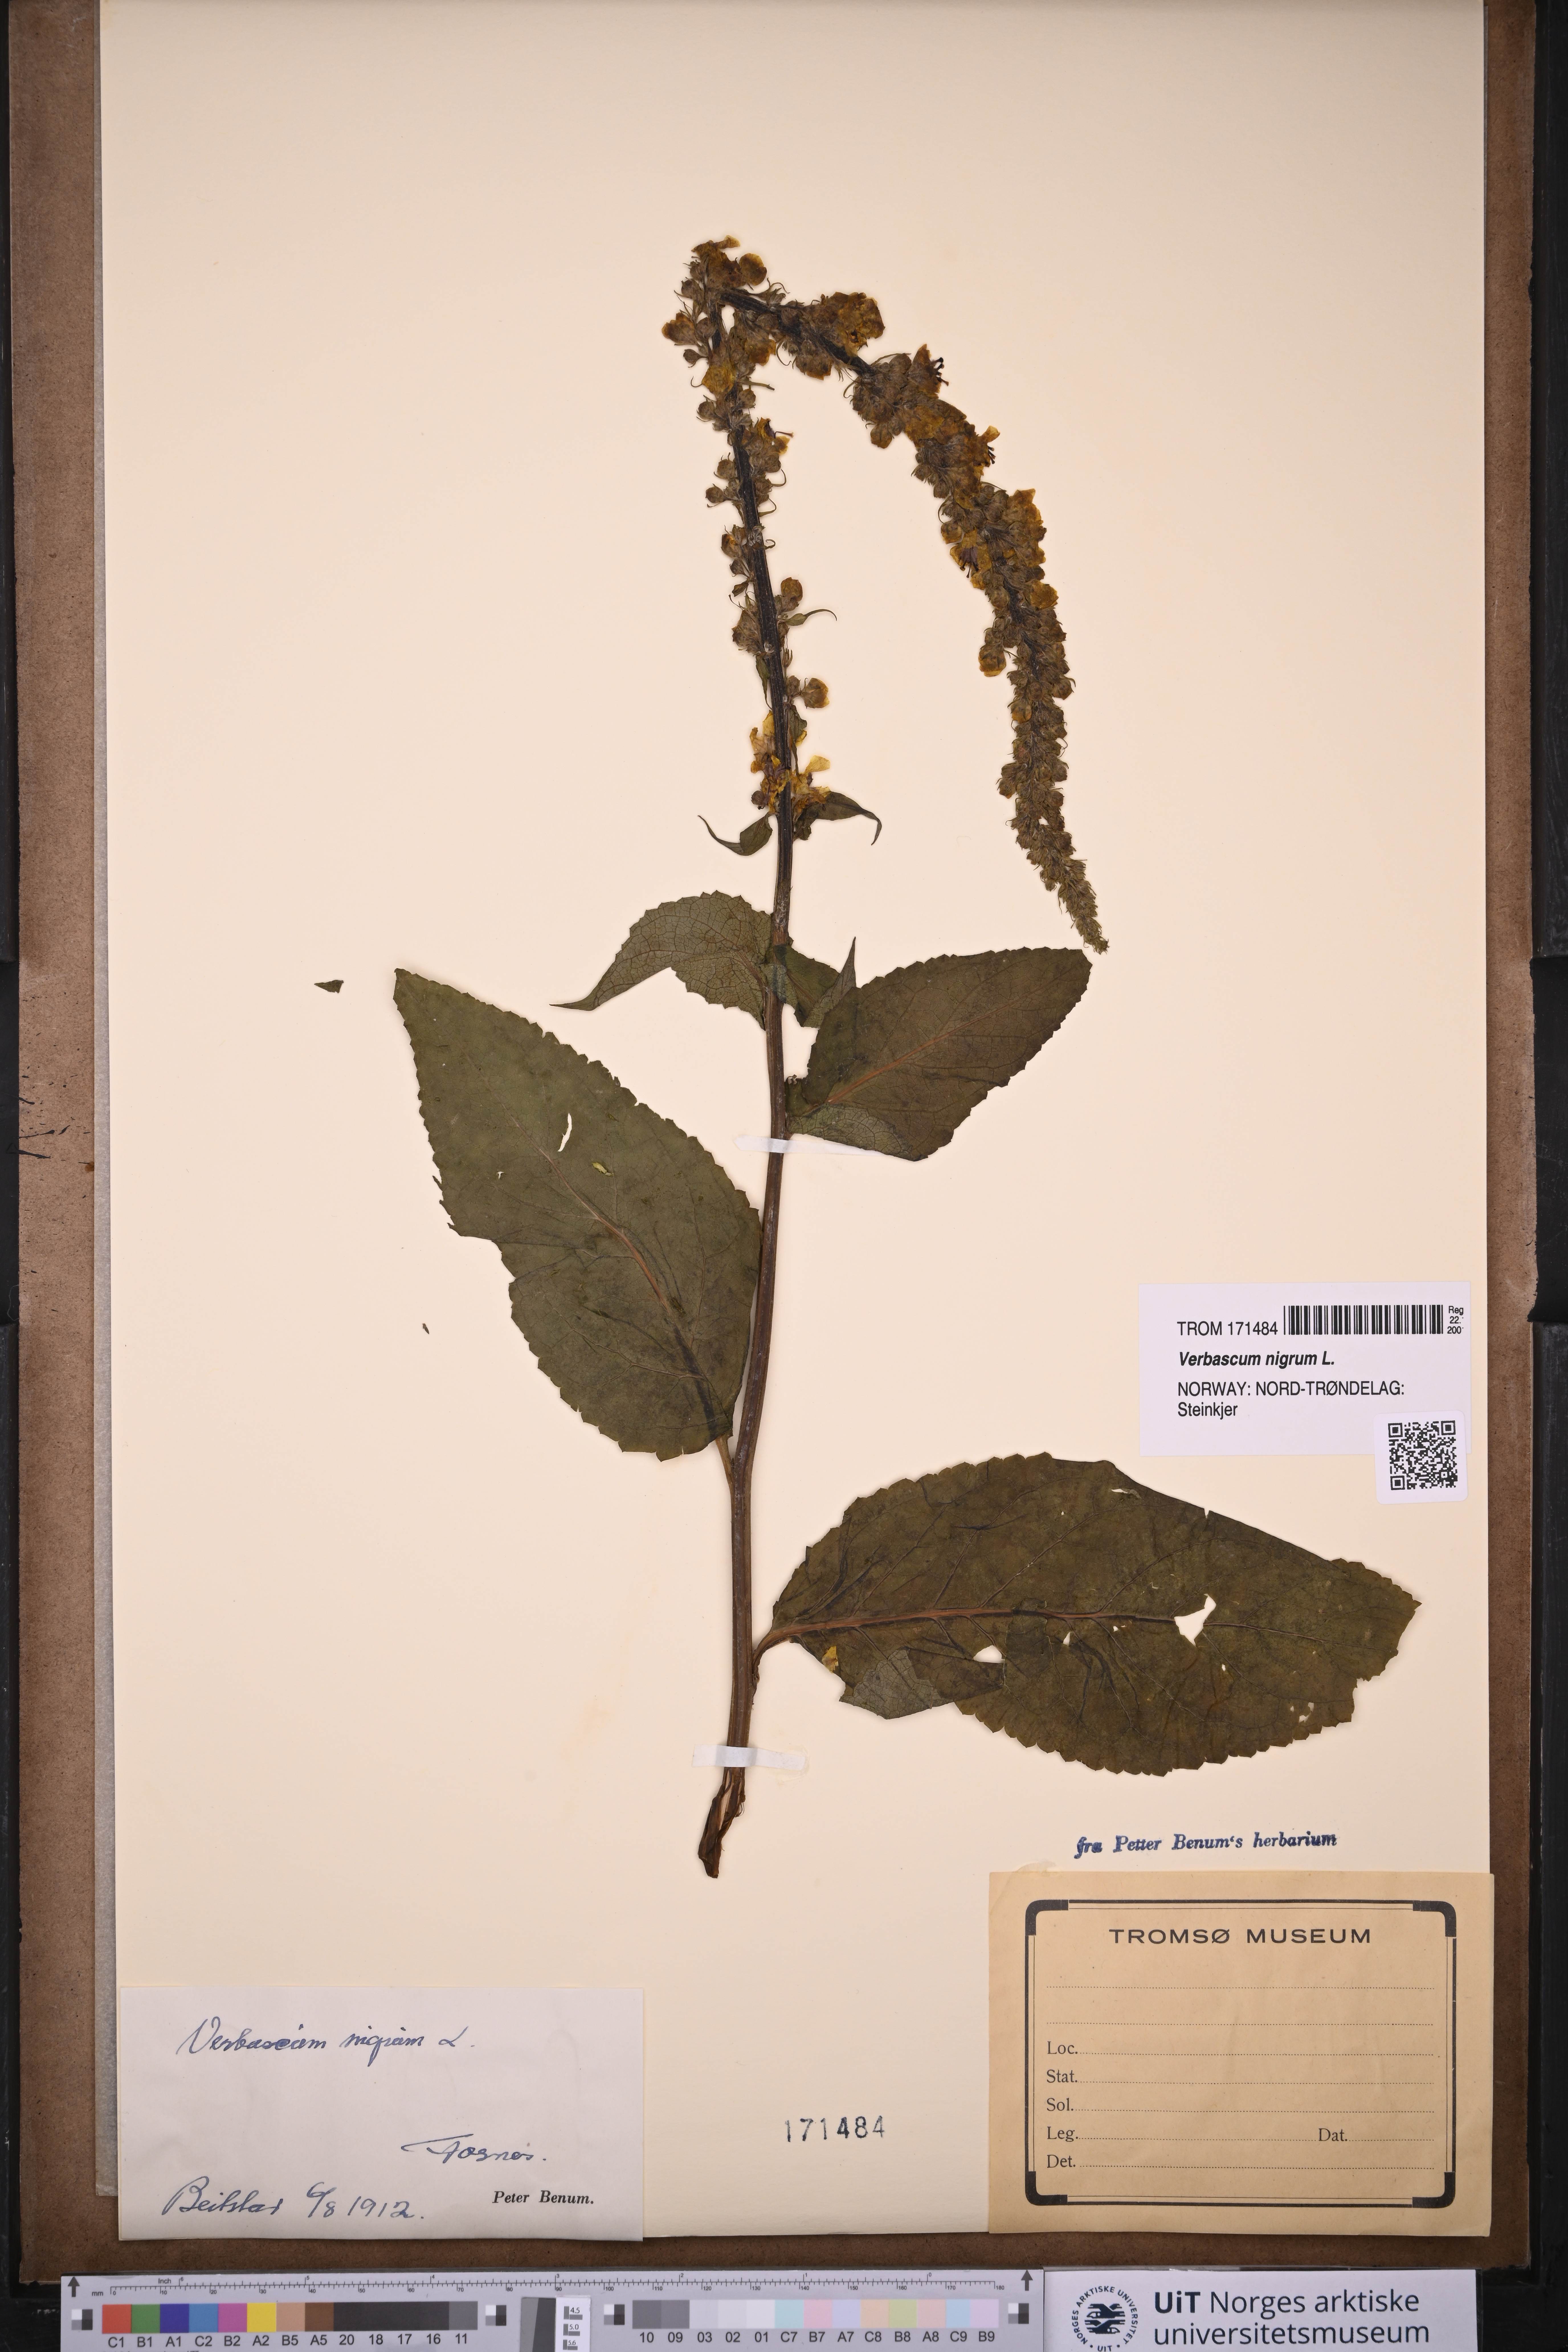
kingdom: Plantae
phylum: Tracheophyta
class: Magnoliopsida
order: Lamiales
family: Scrophulariaceae
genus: Verbascum
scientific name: Verbascum nigrum
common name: Dark mullein
